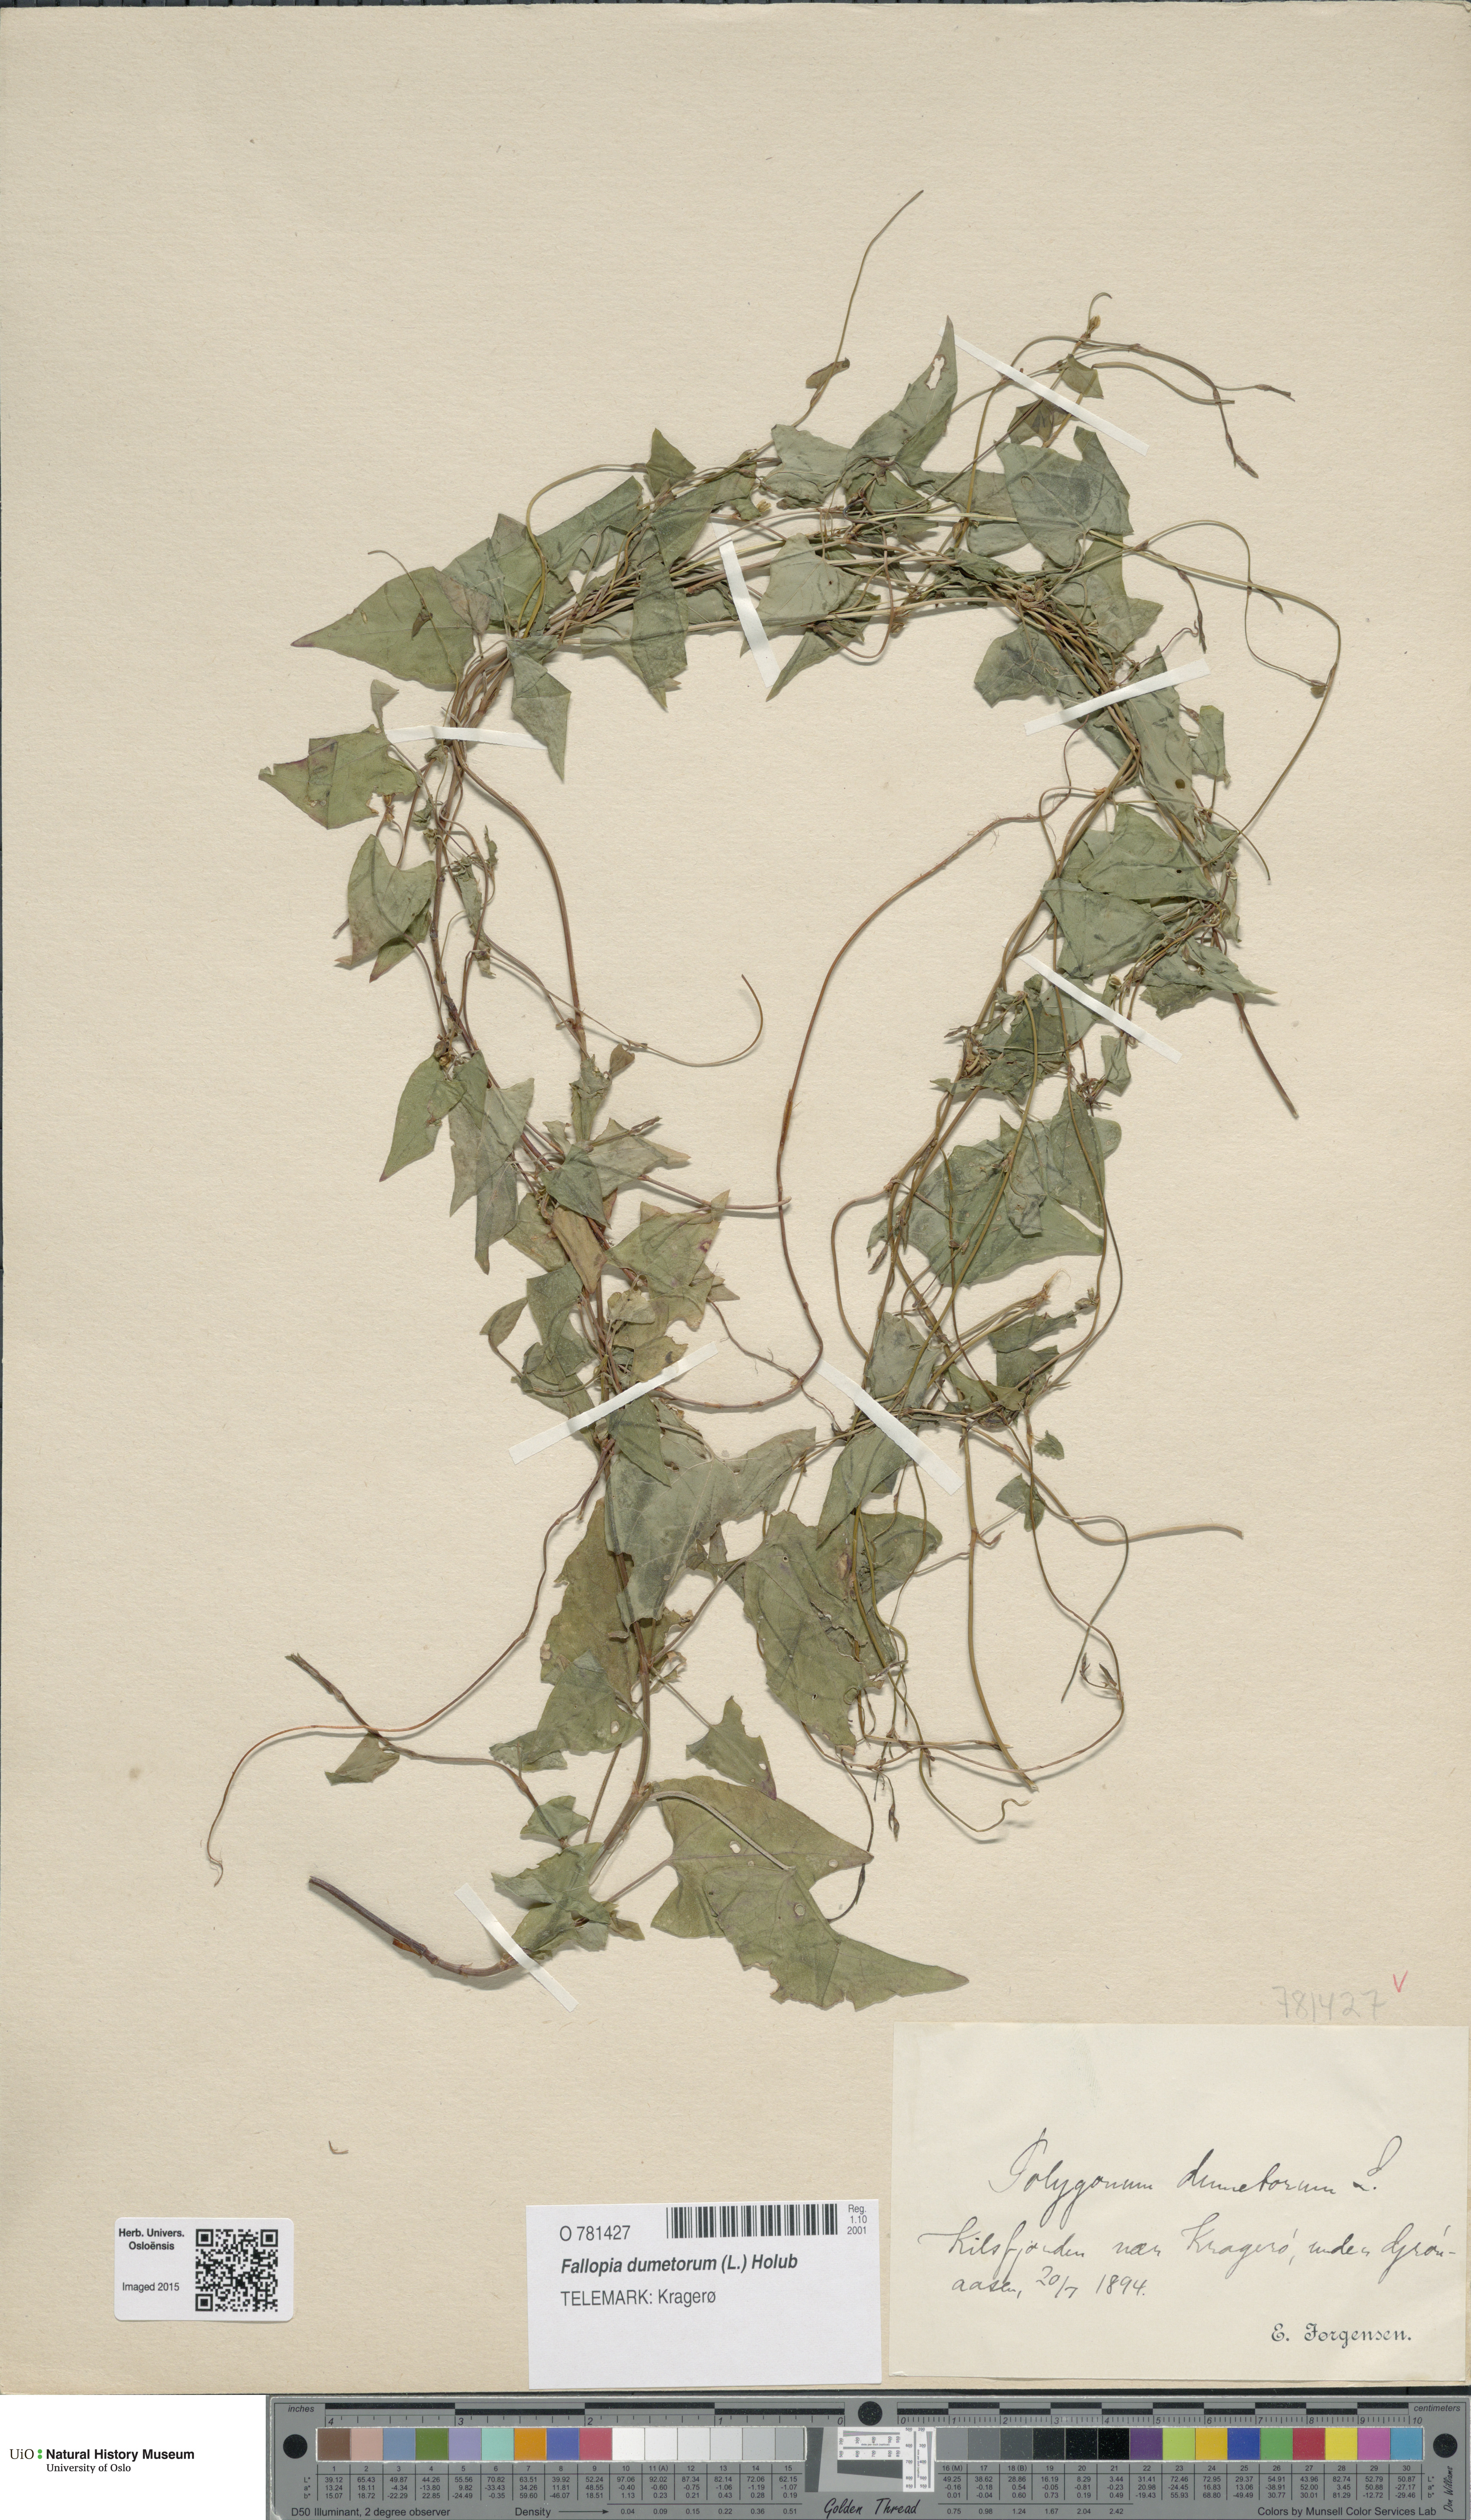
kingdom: Plantae
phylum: Tracheophyta
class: Magnoliopsida
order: Caryophyllales
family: Polygonaceae
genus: Fallopia
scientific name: Fallopia dumetorum
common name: Copse-bindweed
